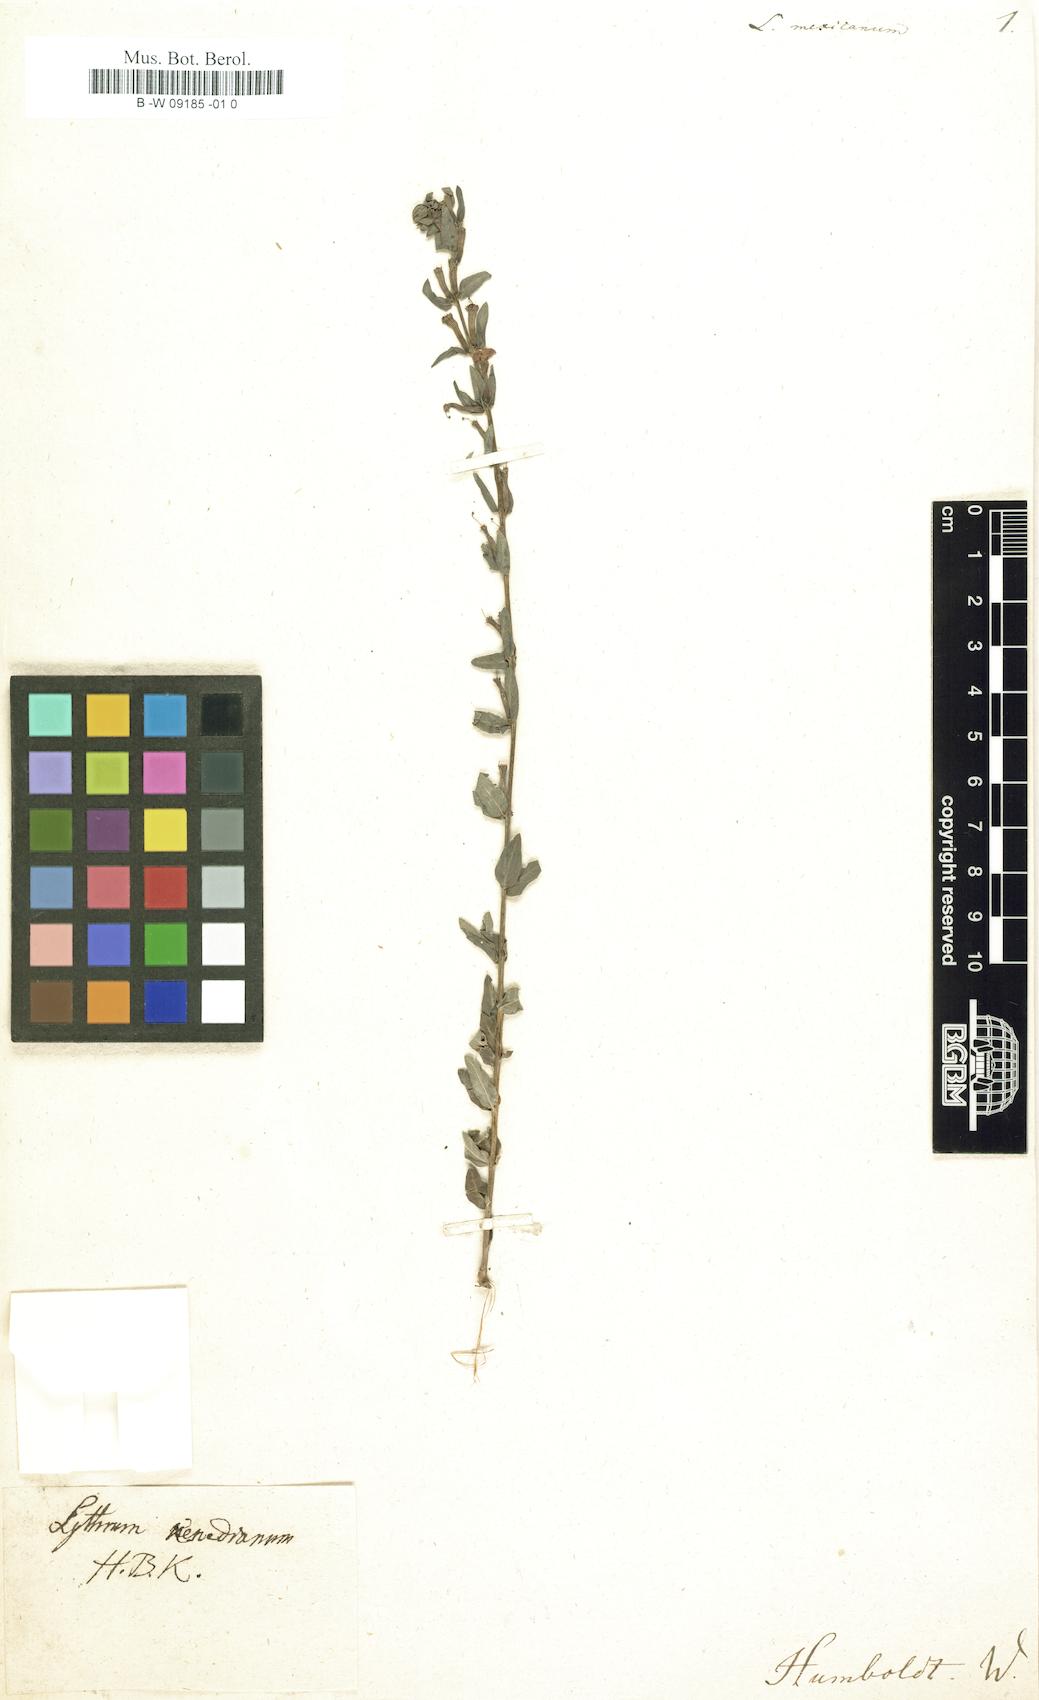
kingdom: Plantae
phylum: Tracheophyta
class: Magnoliopsida
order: Myrtales
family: Lythraceae
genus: Lythrum
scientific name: Lythrum
